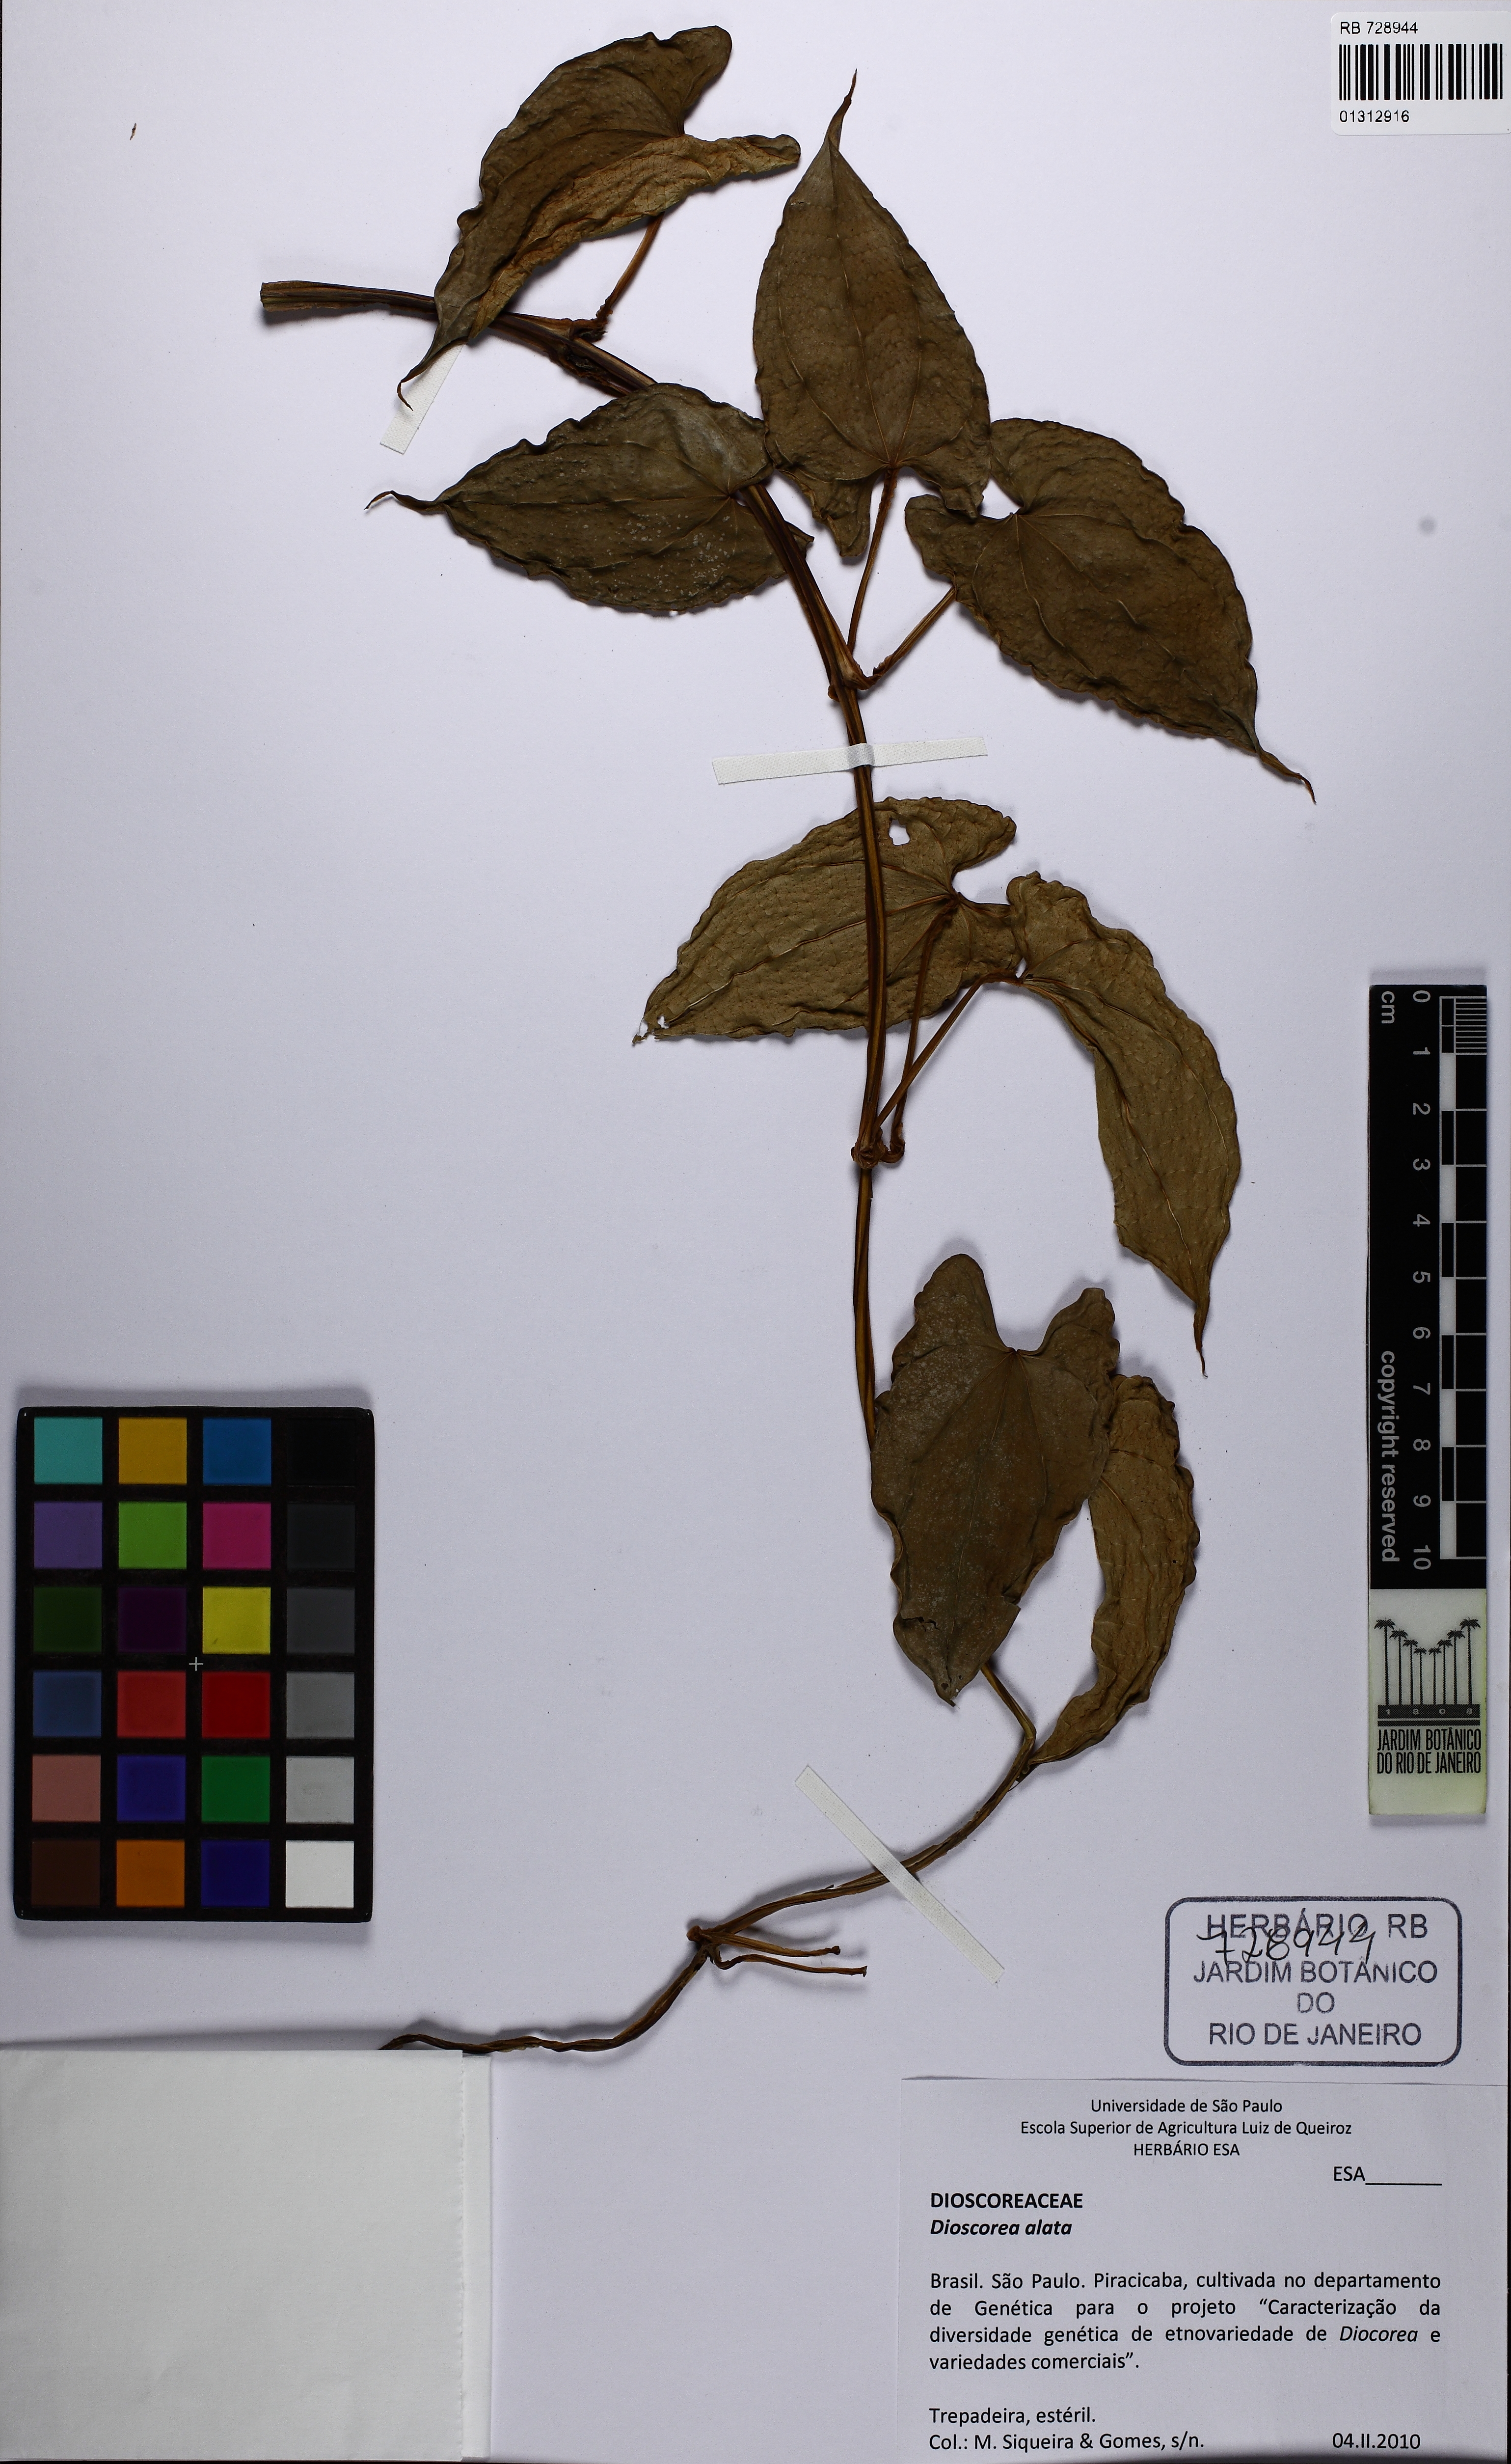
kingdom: Plantae
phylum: Tracheophyta
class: Liliopsida
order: Dioscoreales
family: Dioscoreaceae
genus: Dioscorea
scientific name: Dioscorea alata
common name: Water yam
